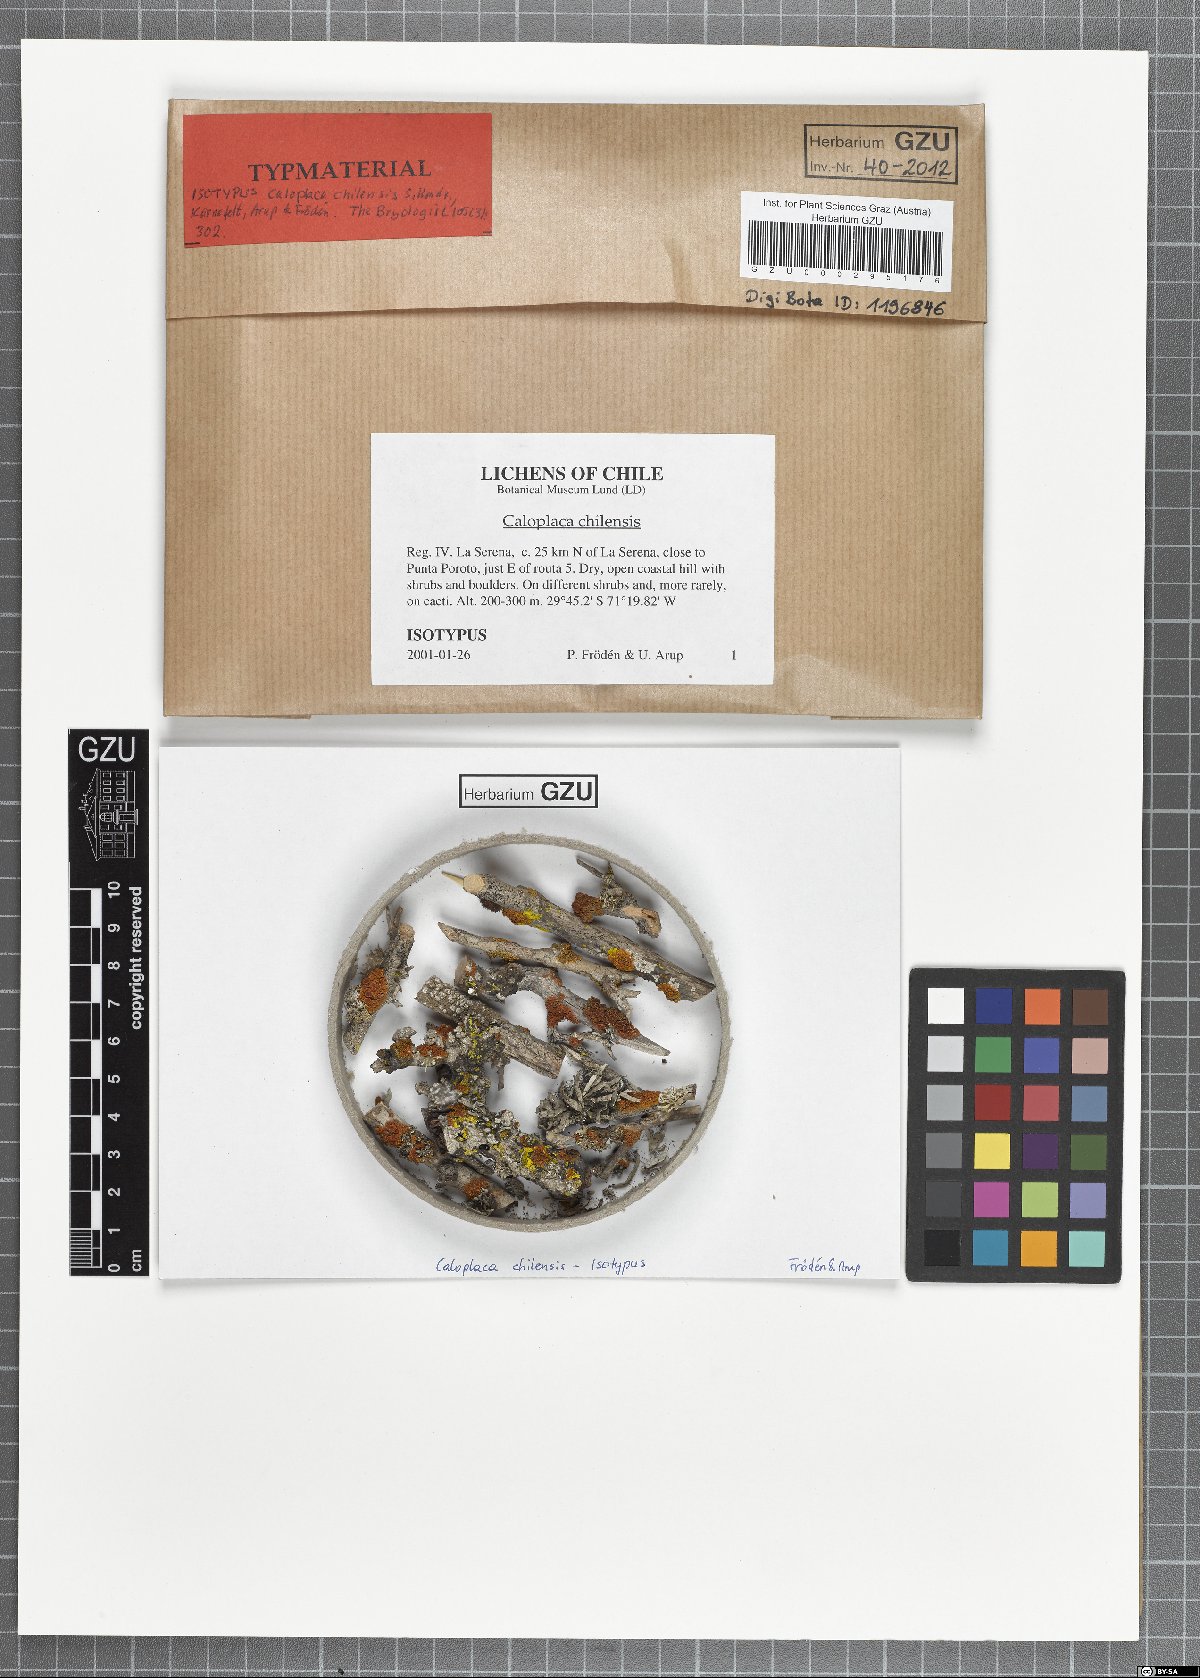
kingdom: Fungi
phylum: Ascomycota
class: Lecanoromycetes
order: Teloschistales
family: Teloschistaceae
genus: Hosseusiella
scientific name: Hosseusiella chilensis
